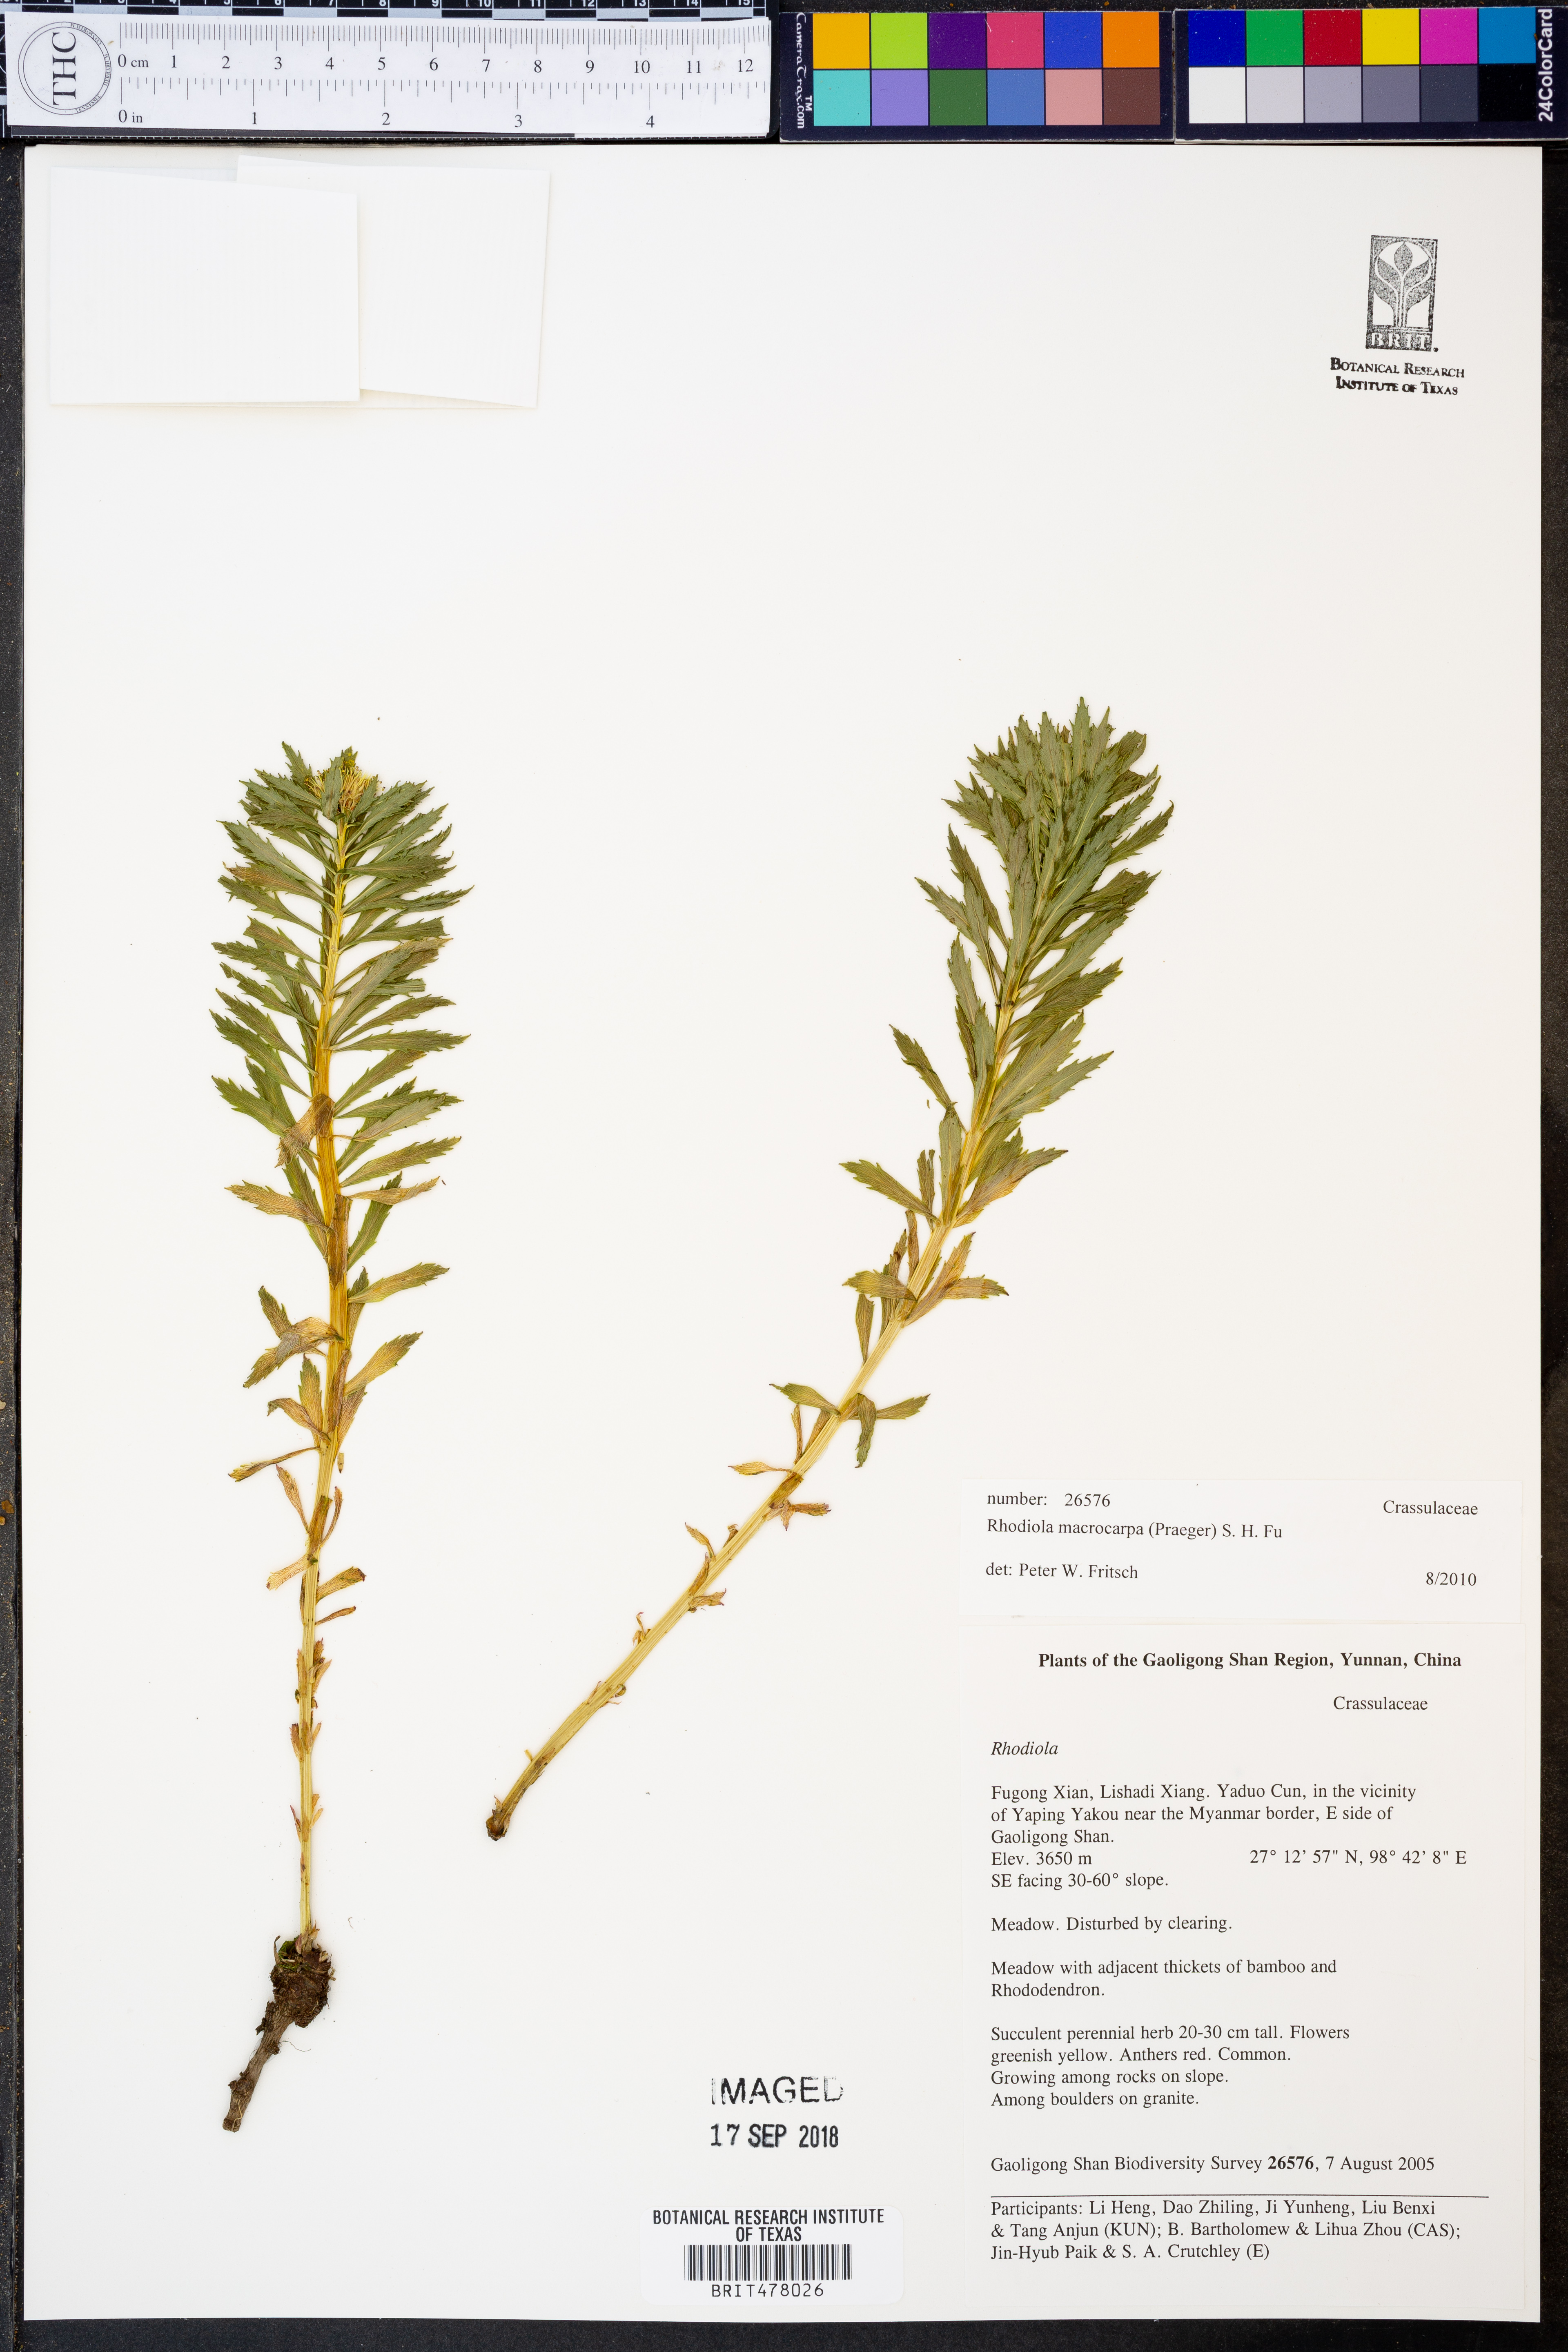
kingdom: Plantae
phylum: Tracheophyta
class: Magnoliopsida
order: Saxifragales
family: Crassulaceae
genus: Rhodiola
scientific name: Rhodiola macrocarpa
